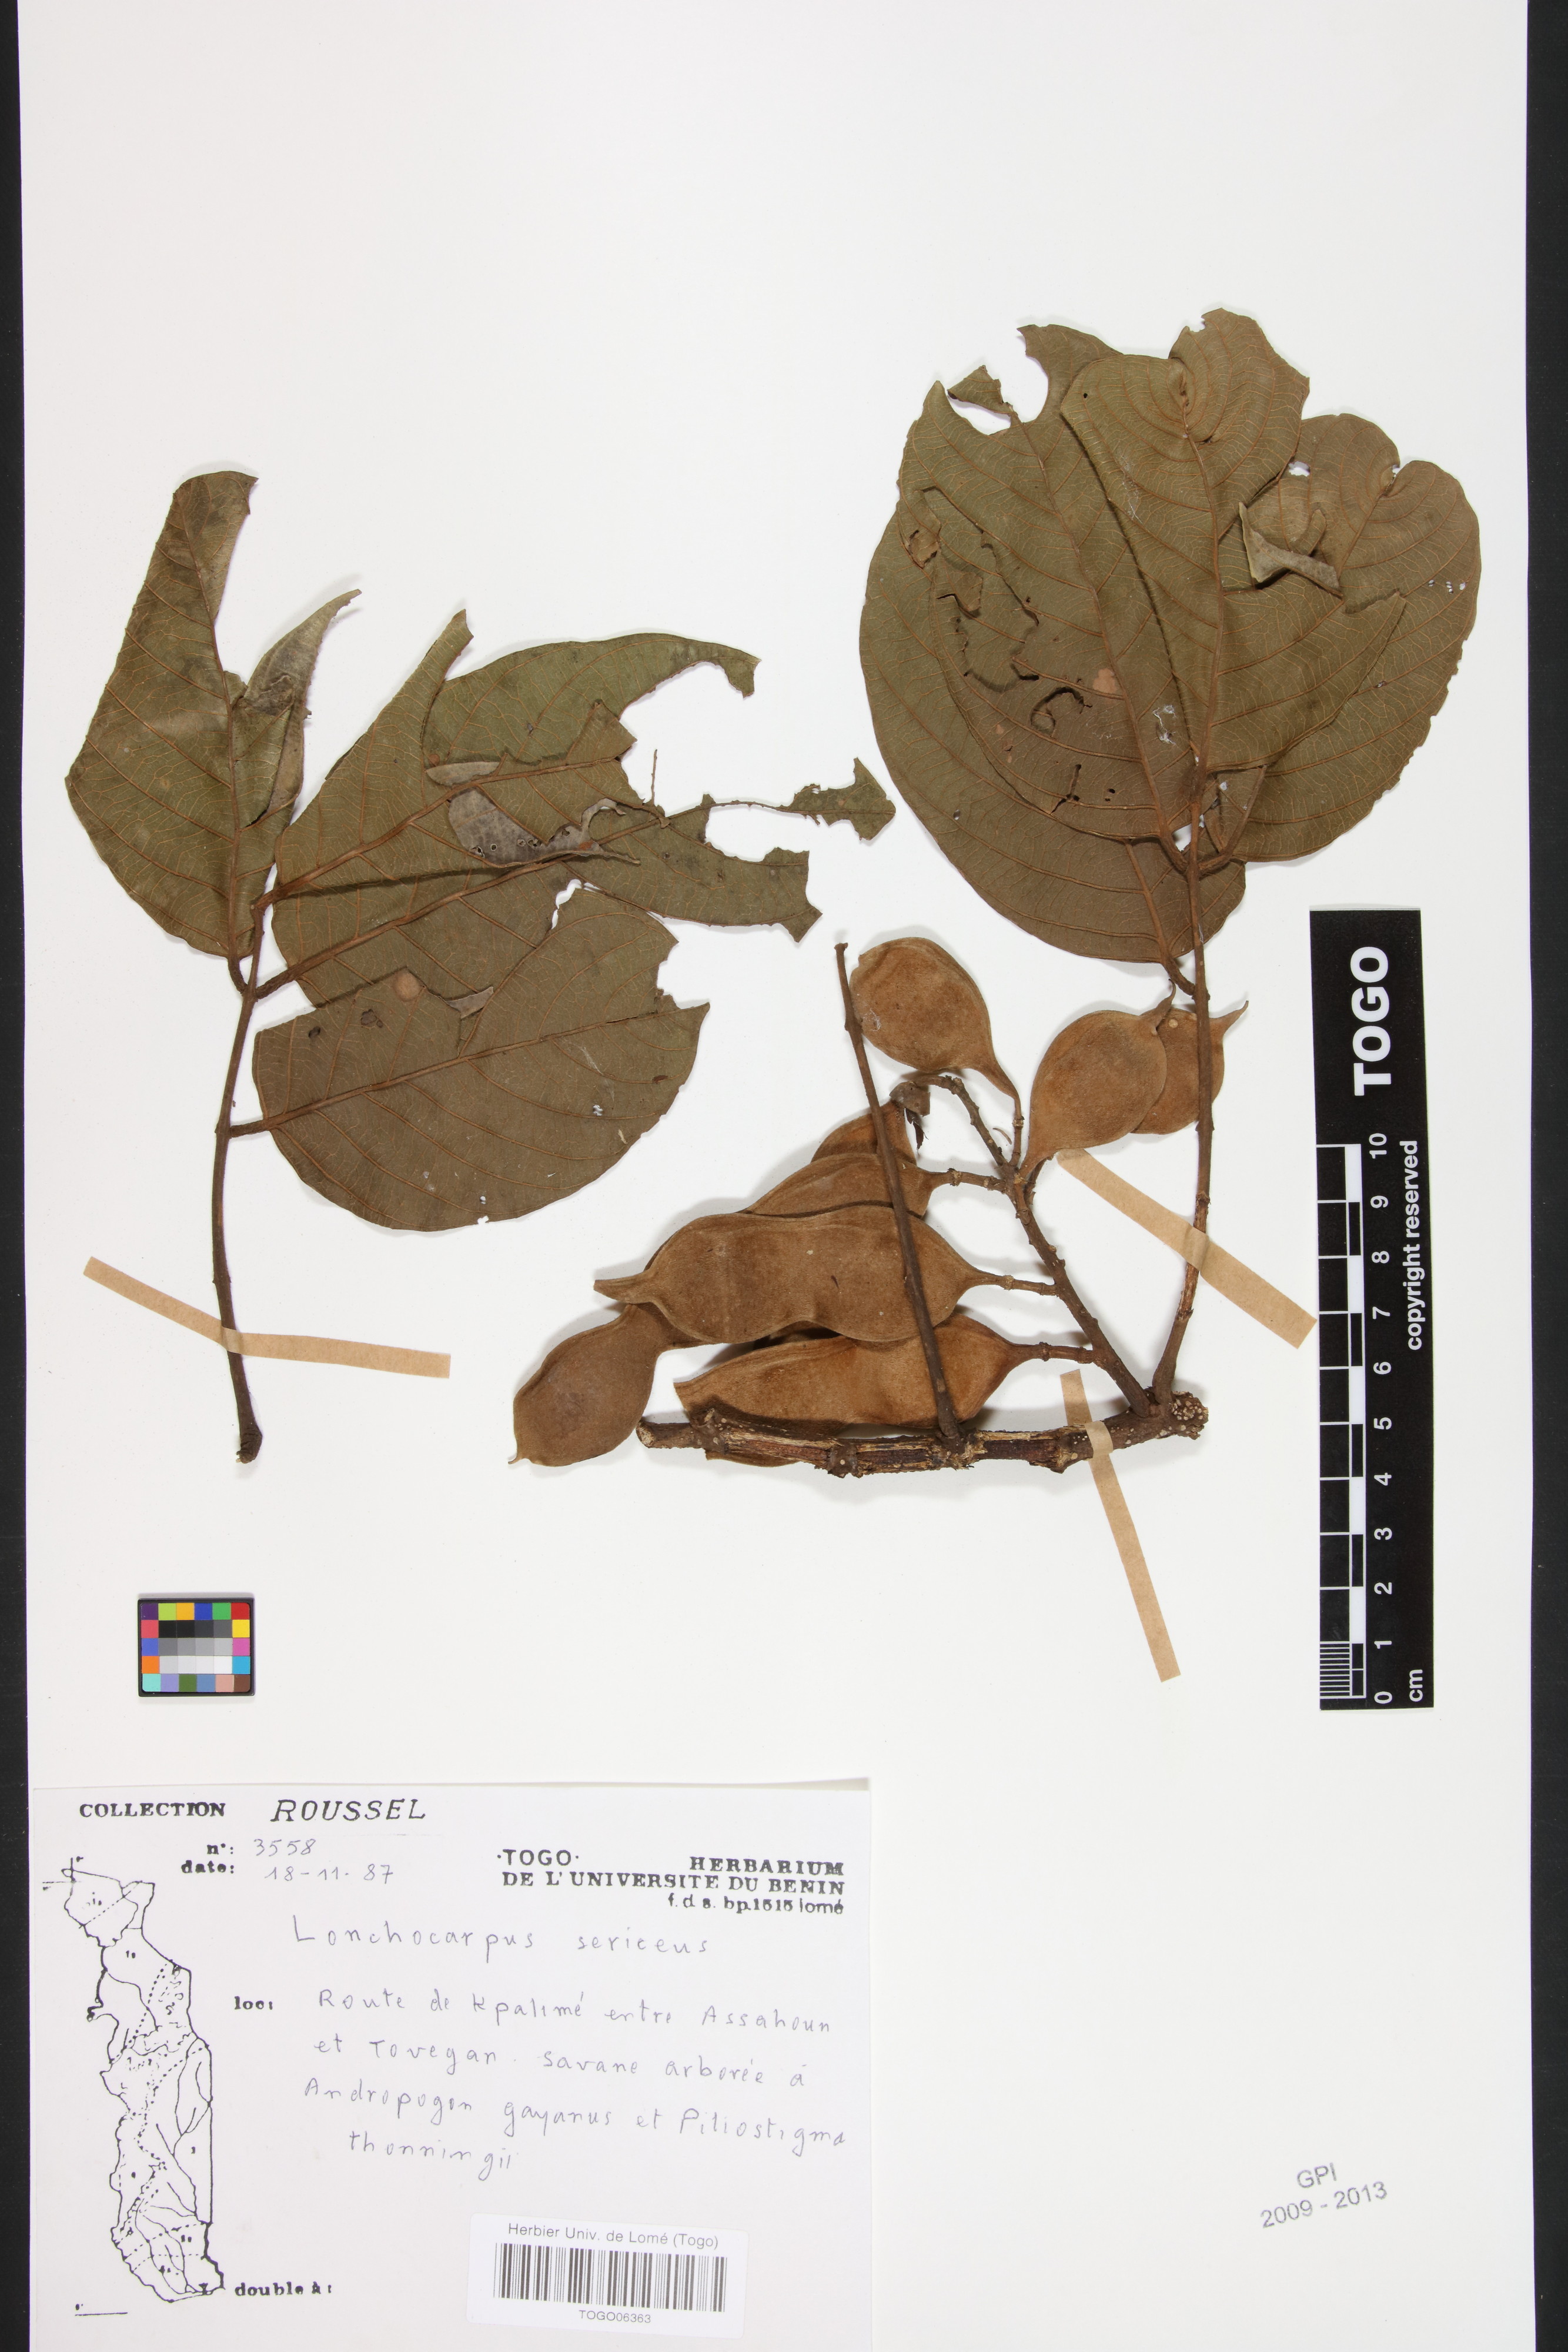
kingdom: Plantae
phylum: Tracheophyta
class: Magnoliopsida
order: Fabales
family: Fabaceae
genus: Lonchocarpus
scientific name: Lonchocarpus sericeus
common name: Savonette
